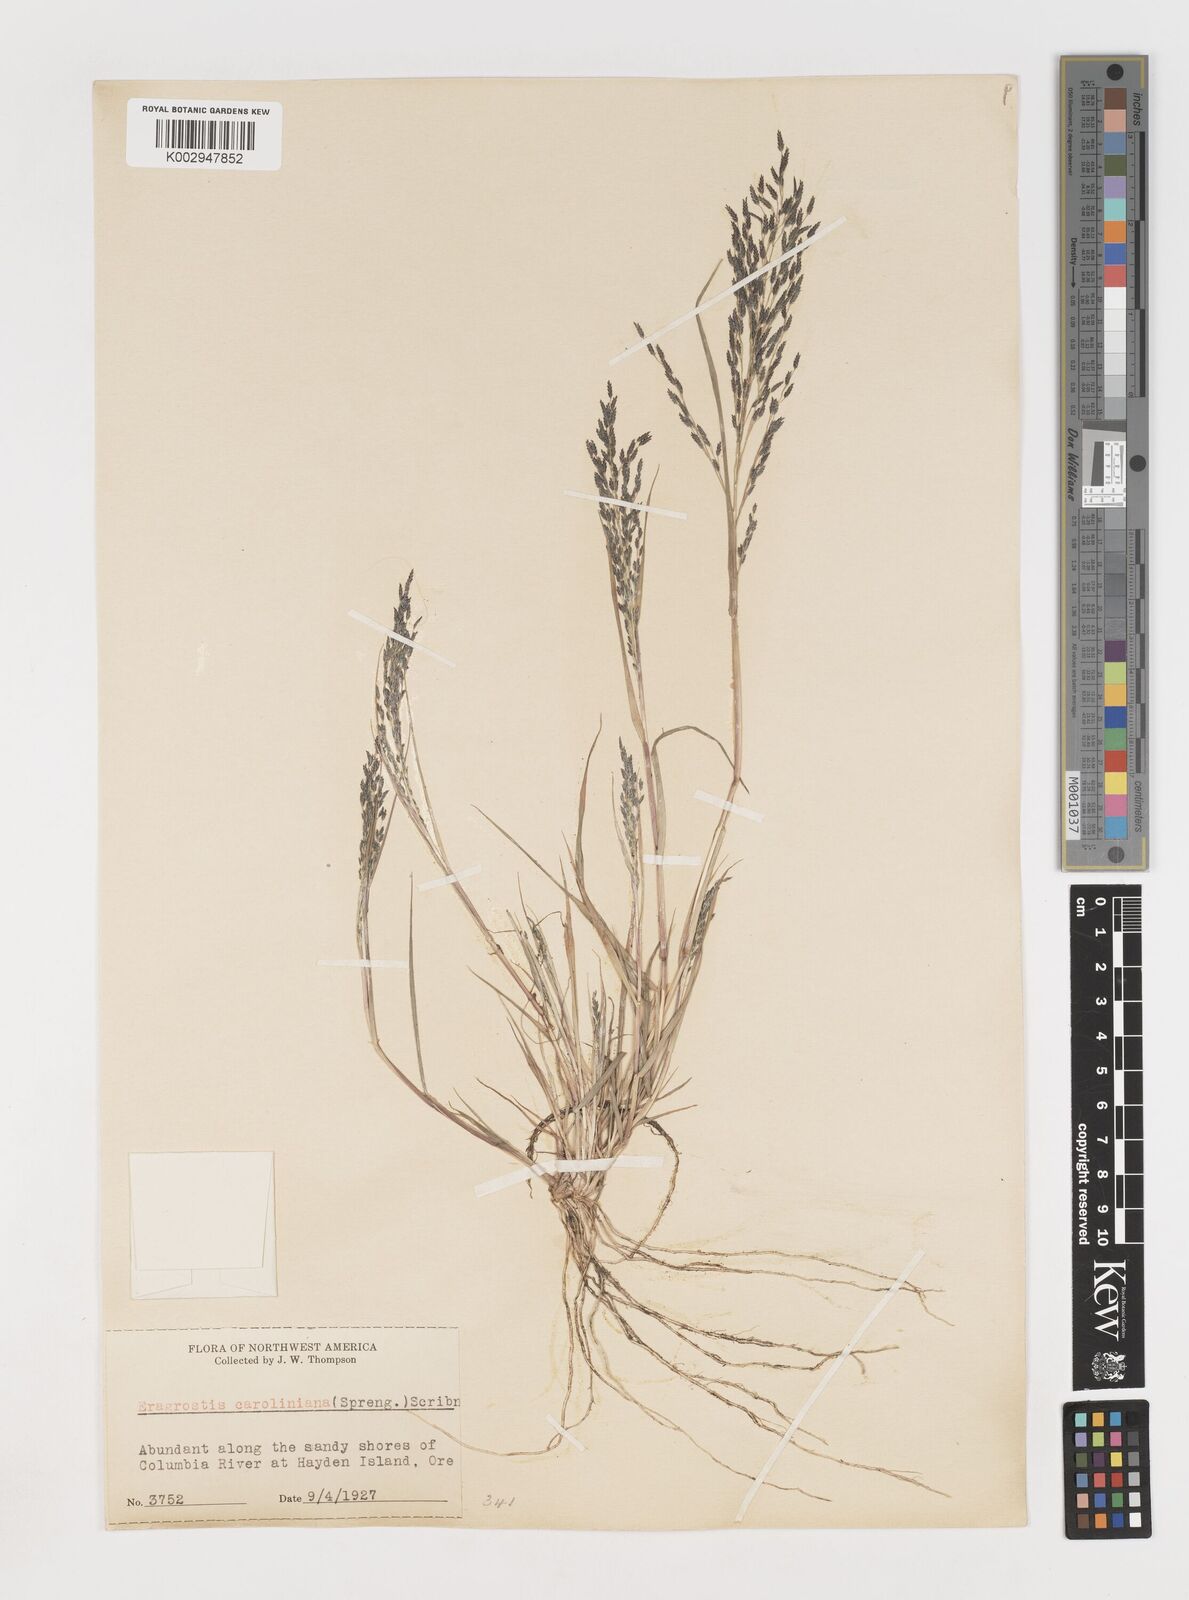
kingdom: Plantae
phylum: Tracheophyta
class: Liliopsida
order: Poales
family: Poaceae
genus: Eragrostis
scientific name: Eragrostis pectinacea
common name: Tufted lovegrass
